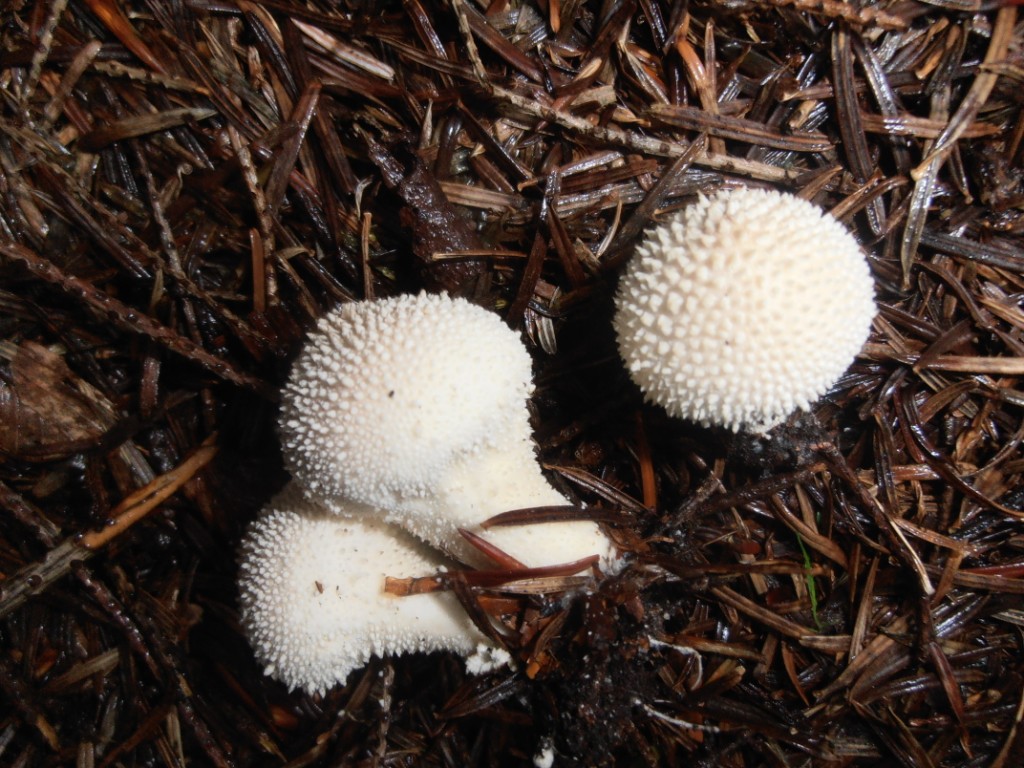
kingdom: Fungi
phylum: Basidiomycota
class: Agaricomycetes
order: Agaricales
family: Lycoperdaceae
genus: Lycoperdon
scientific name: Lycoperdon perlatum
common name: krystal-støvbold
